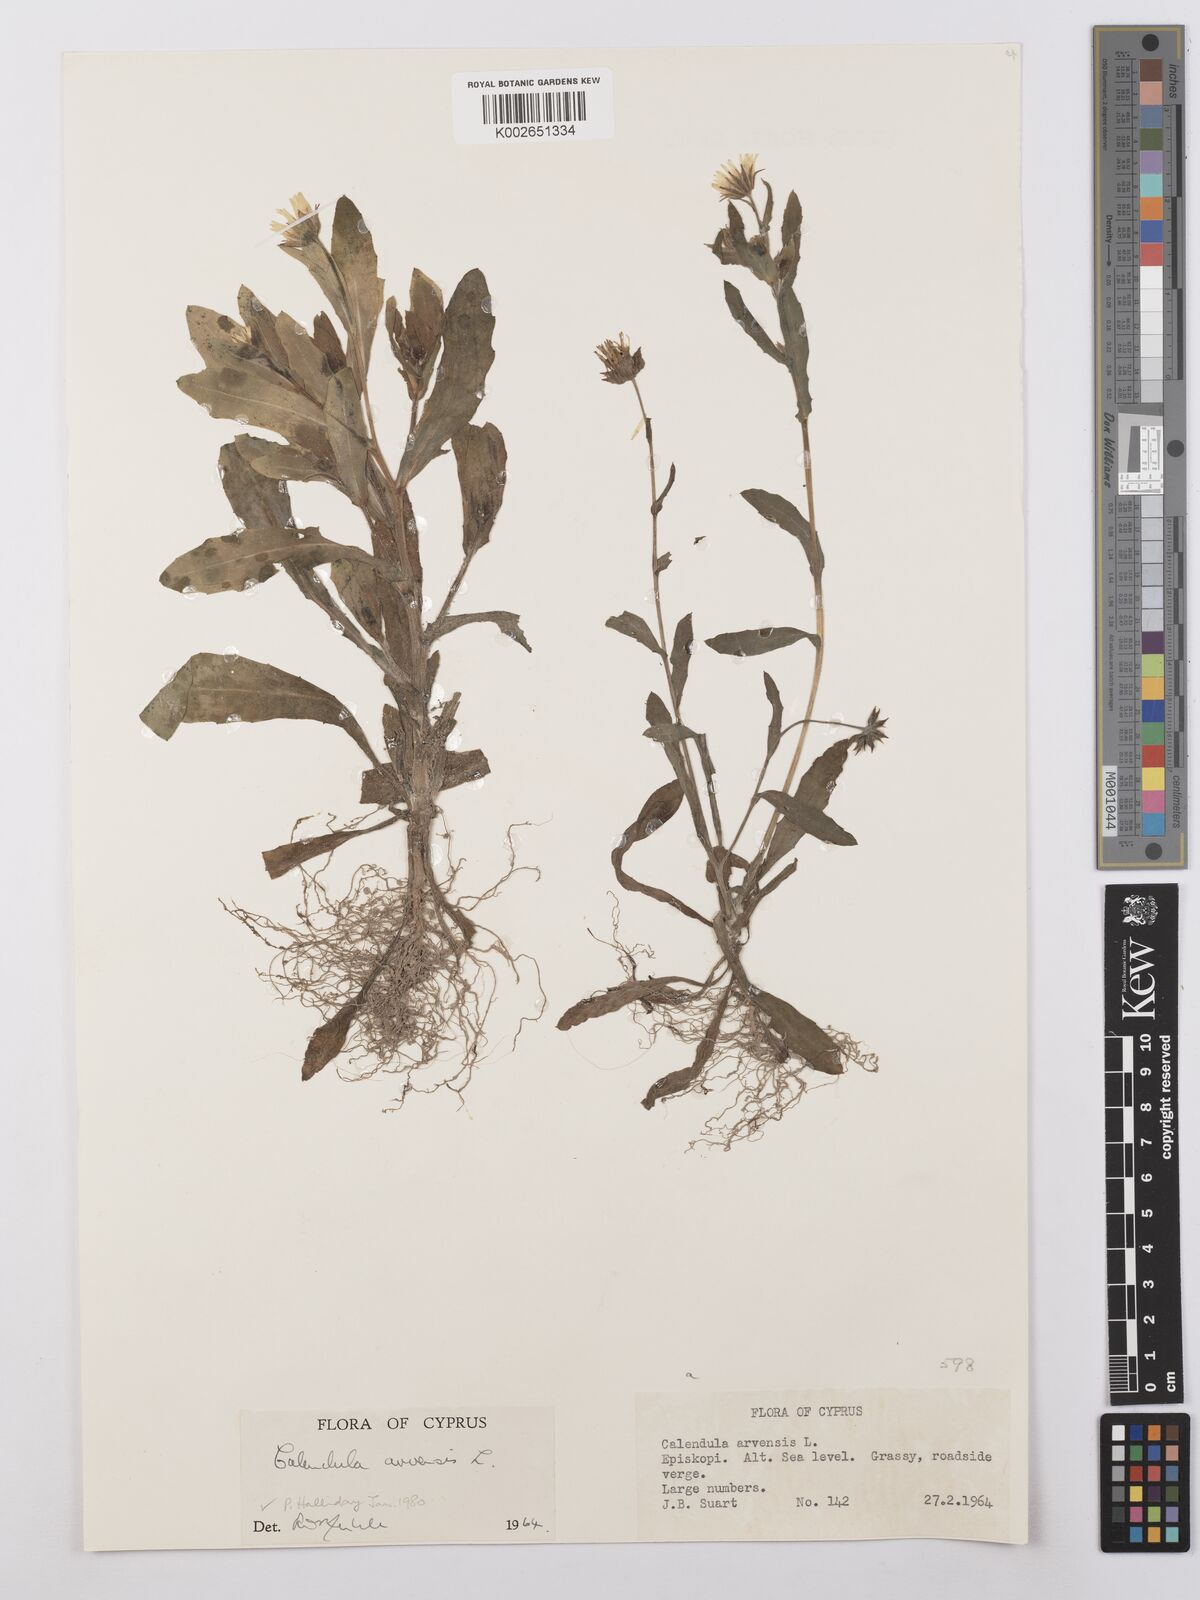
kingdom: Plantae
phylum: Tracheophyta
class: Magnoliopsida
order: Asterales
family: Asteraceae
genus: Calendula
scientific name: Calendula arvensis
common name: Field marigold
